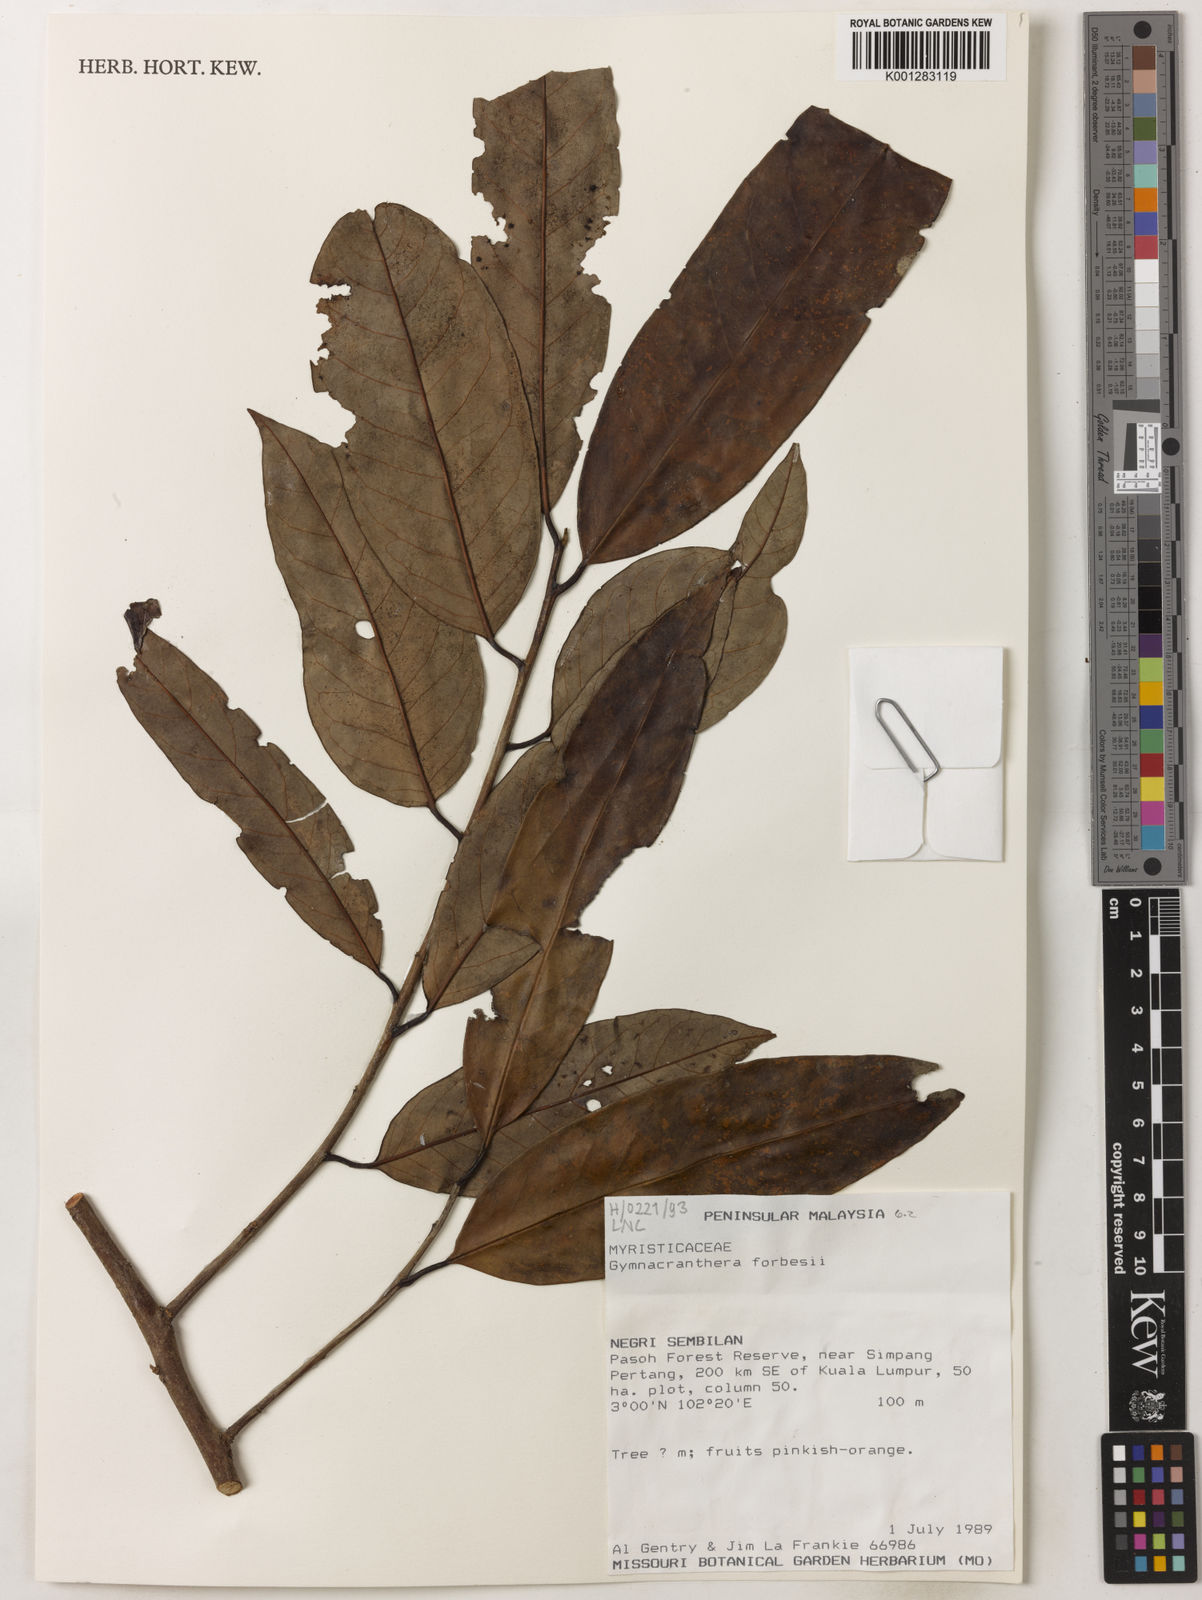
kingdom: Plantae
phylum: Tracheophyta
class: Magnoliopsida
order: Magnoliales
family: Myristicaceae
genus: Gymnacranthera
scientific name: Gymnacranthera forbesii
